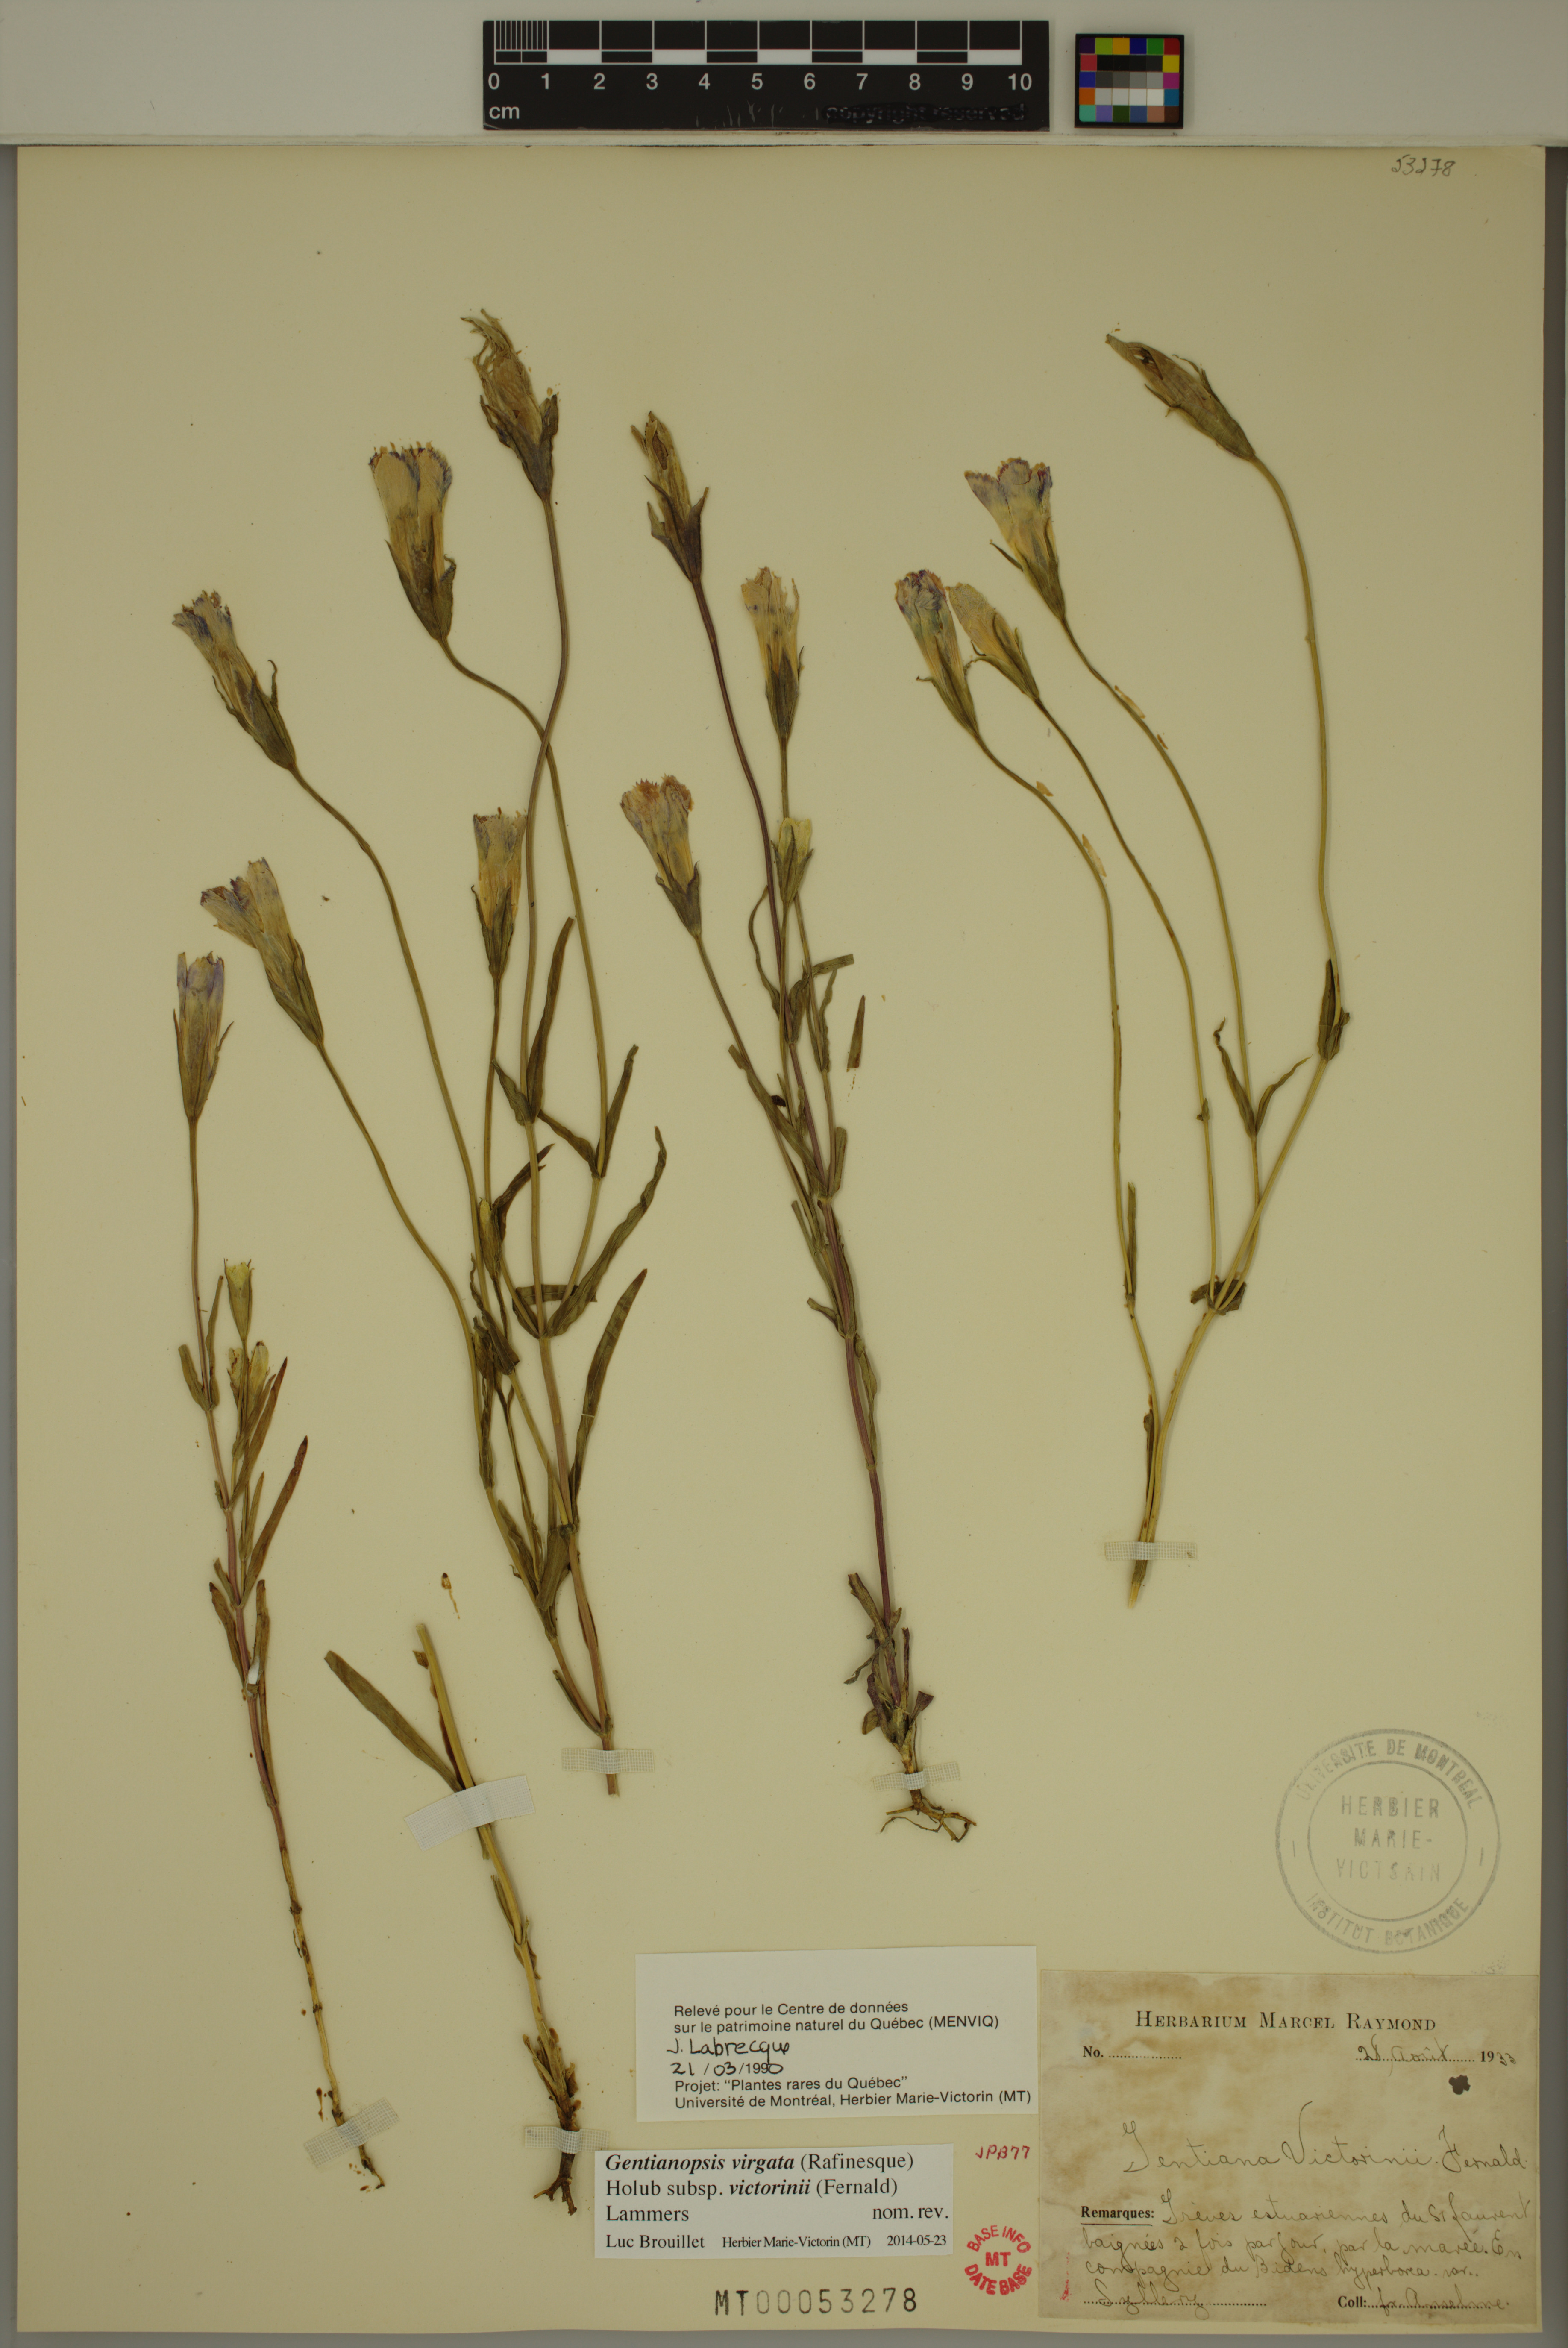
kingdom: Plantae
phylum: Tracheophyta
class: Magnoliopsida
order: Gentianales
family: Gentianaceae
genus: Gentianopsis
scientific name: Gentianopsis victorinii
